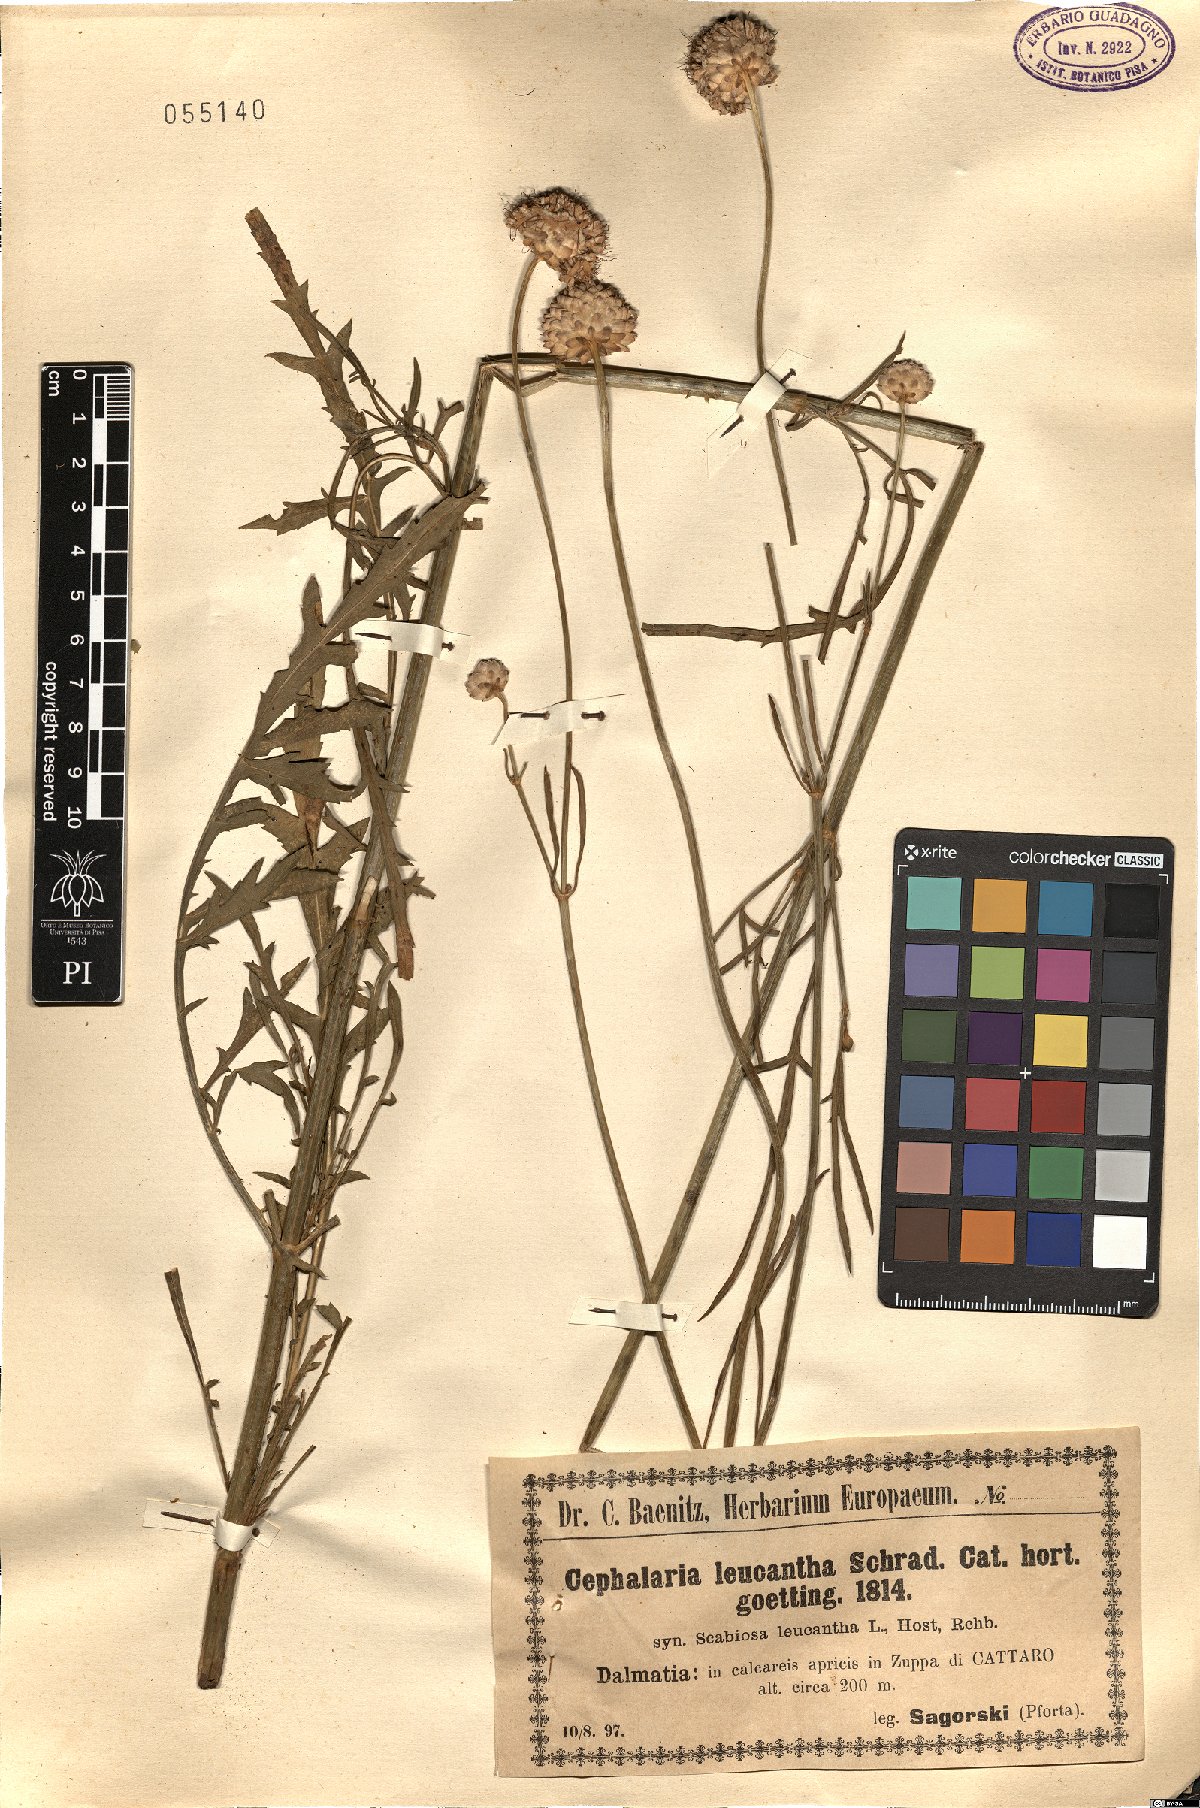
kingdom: Plantae
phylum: Tracheophyta
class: Magnoliopsida
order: Dipsacales
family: Caprifoliaceae
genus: Cephalaria
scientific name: Cephalaria leucantha
